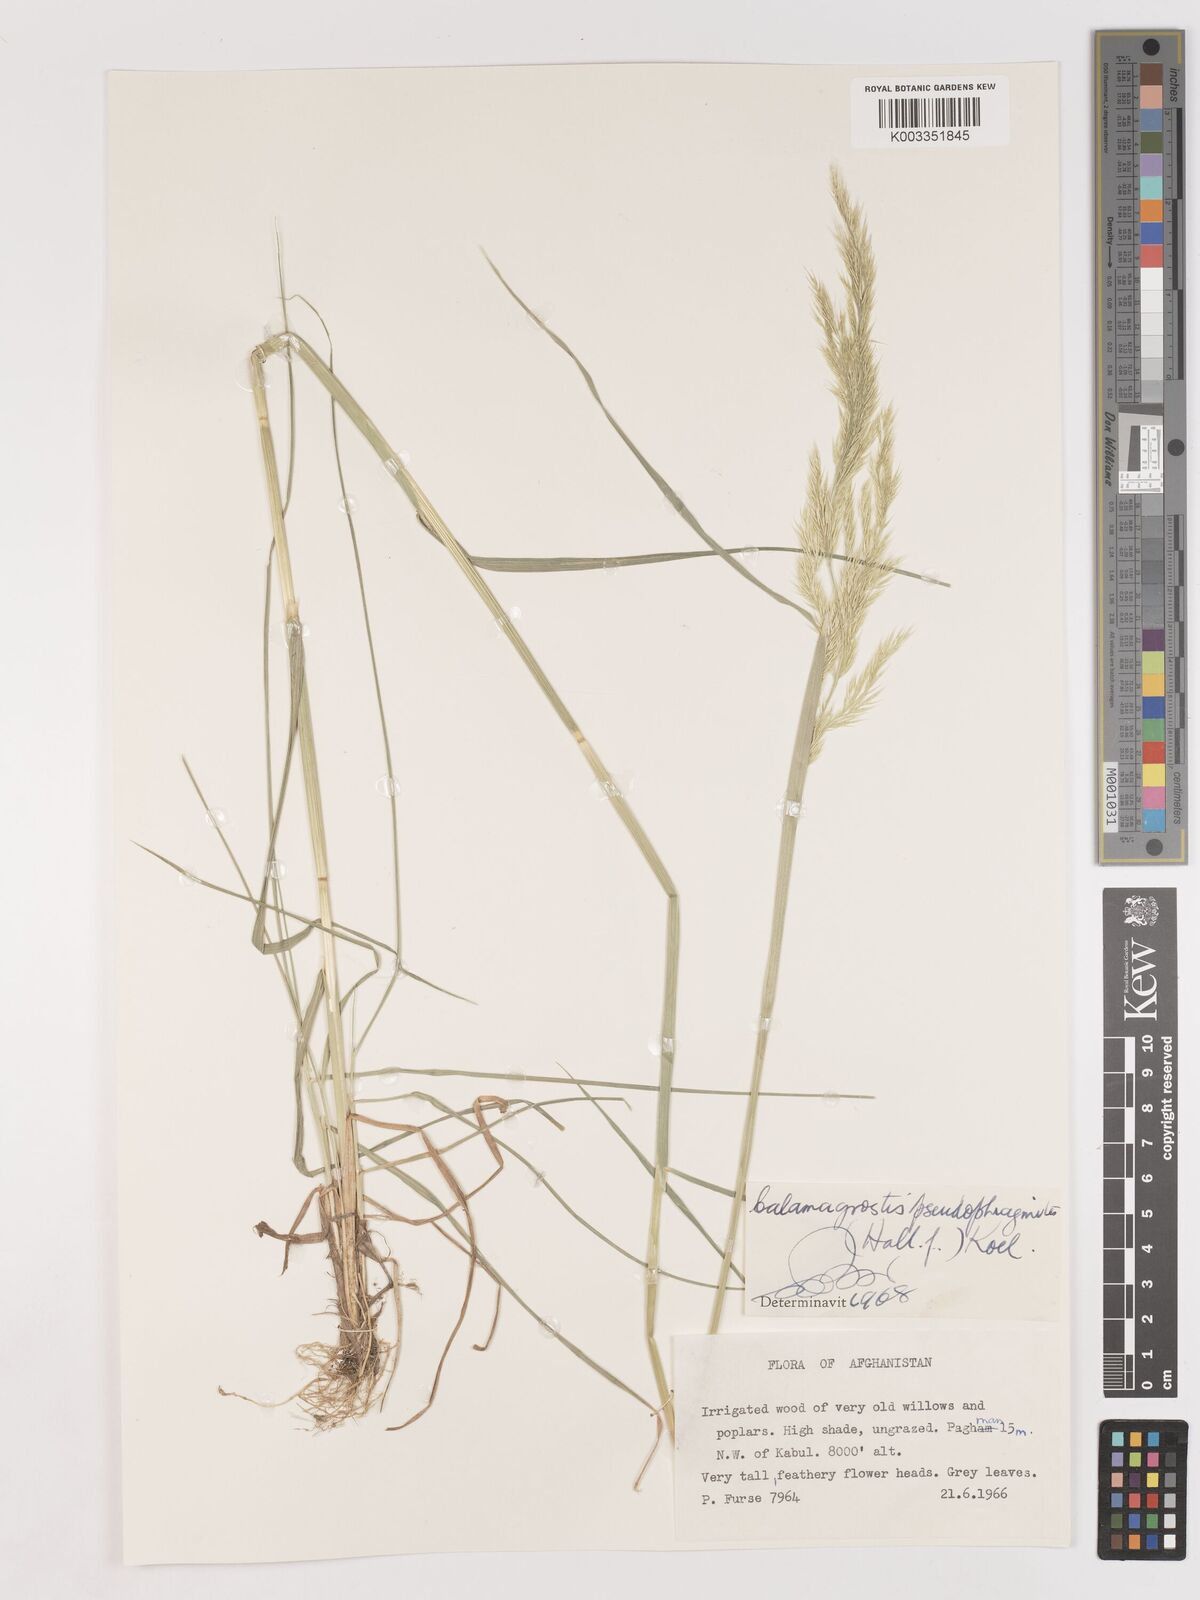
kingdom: Plantae
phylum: Tracheophyta
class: Liliopsida
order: Poales
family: Poaceae
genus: Calamagrostis
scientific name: Calamagrostis purpurea
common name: Scandinavian small-reed
